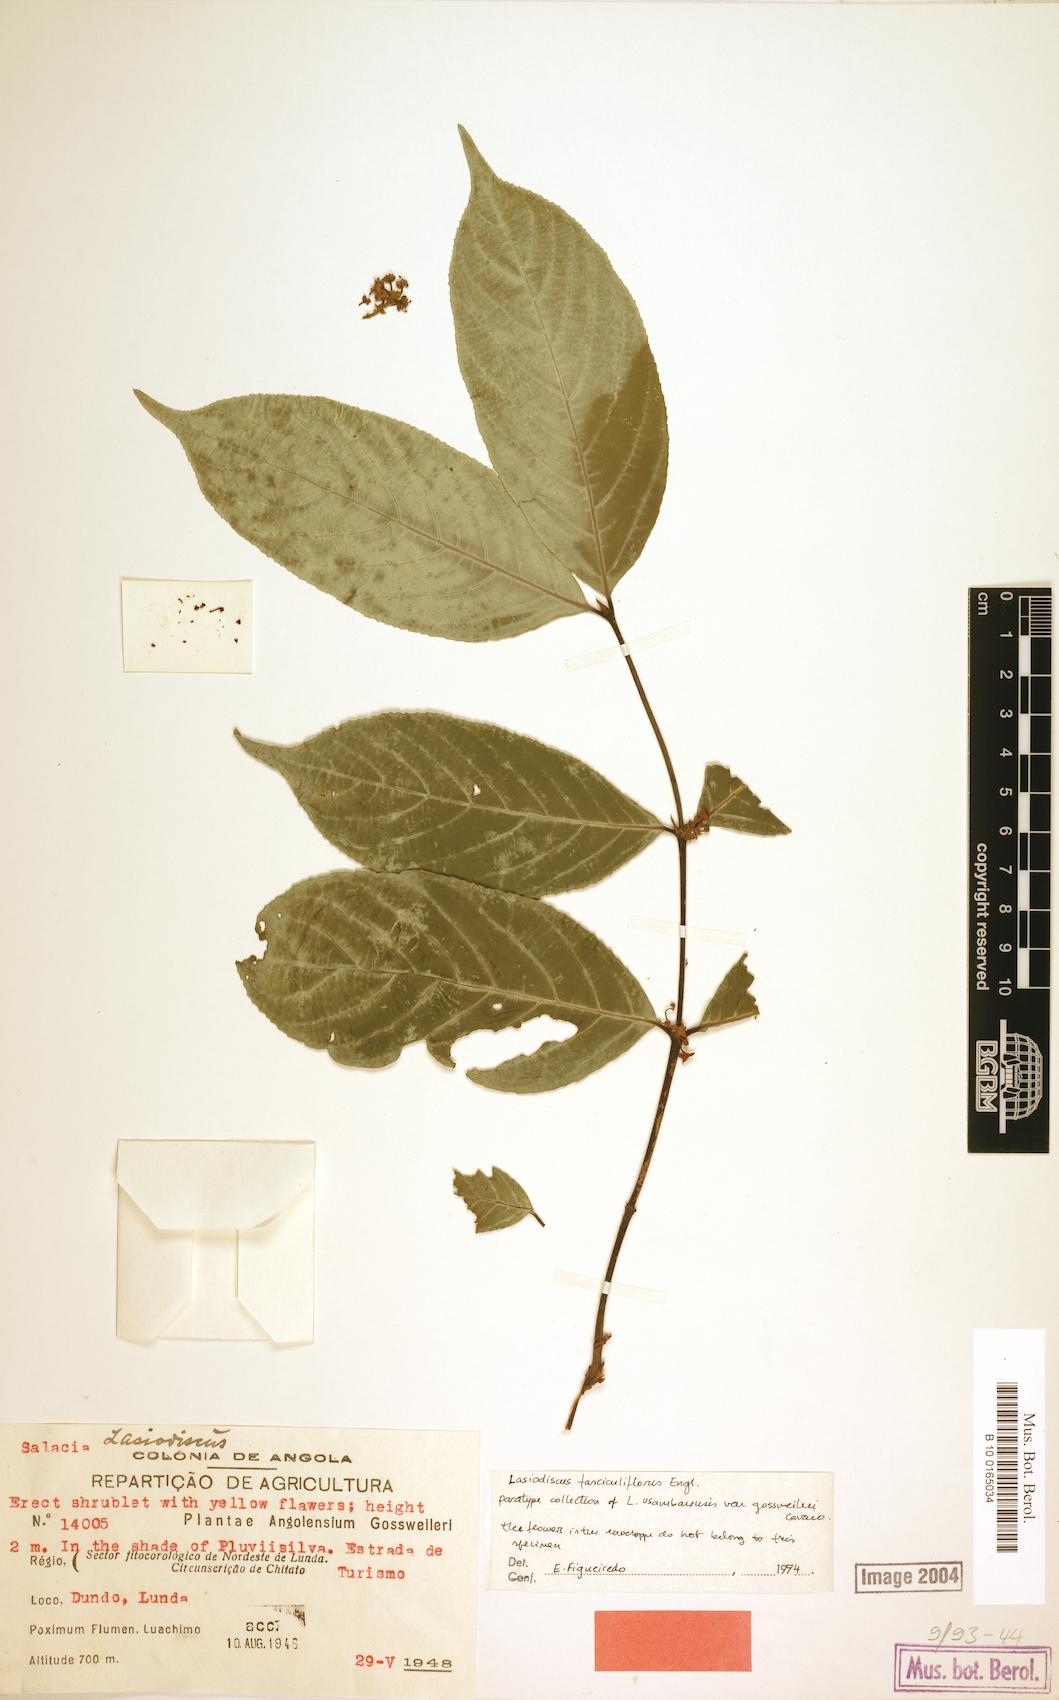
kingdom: Plantae
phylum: Tracheophyta
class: Magnoliopsida
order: Rosales
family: Rhamnaceae
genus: Lasiodiscus
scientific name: Lasiodiscus fasciculiflorus
